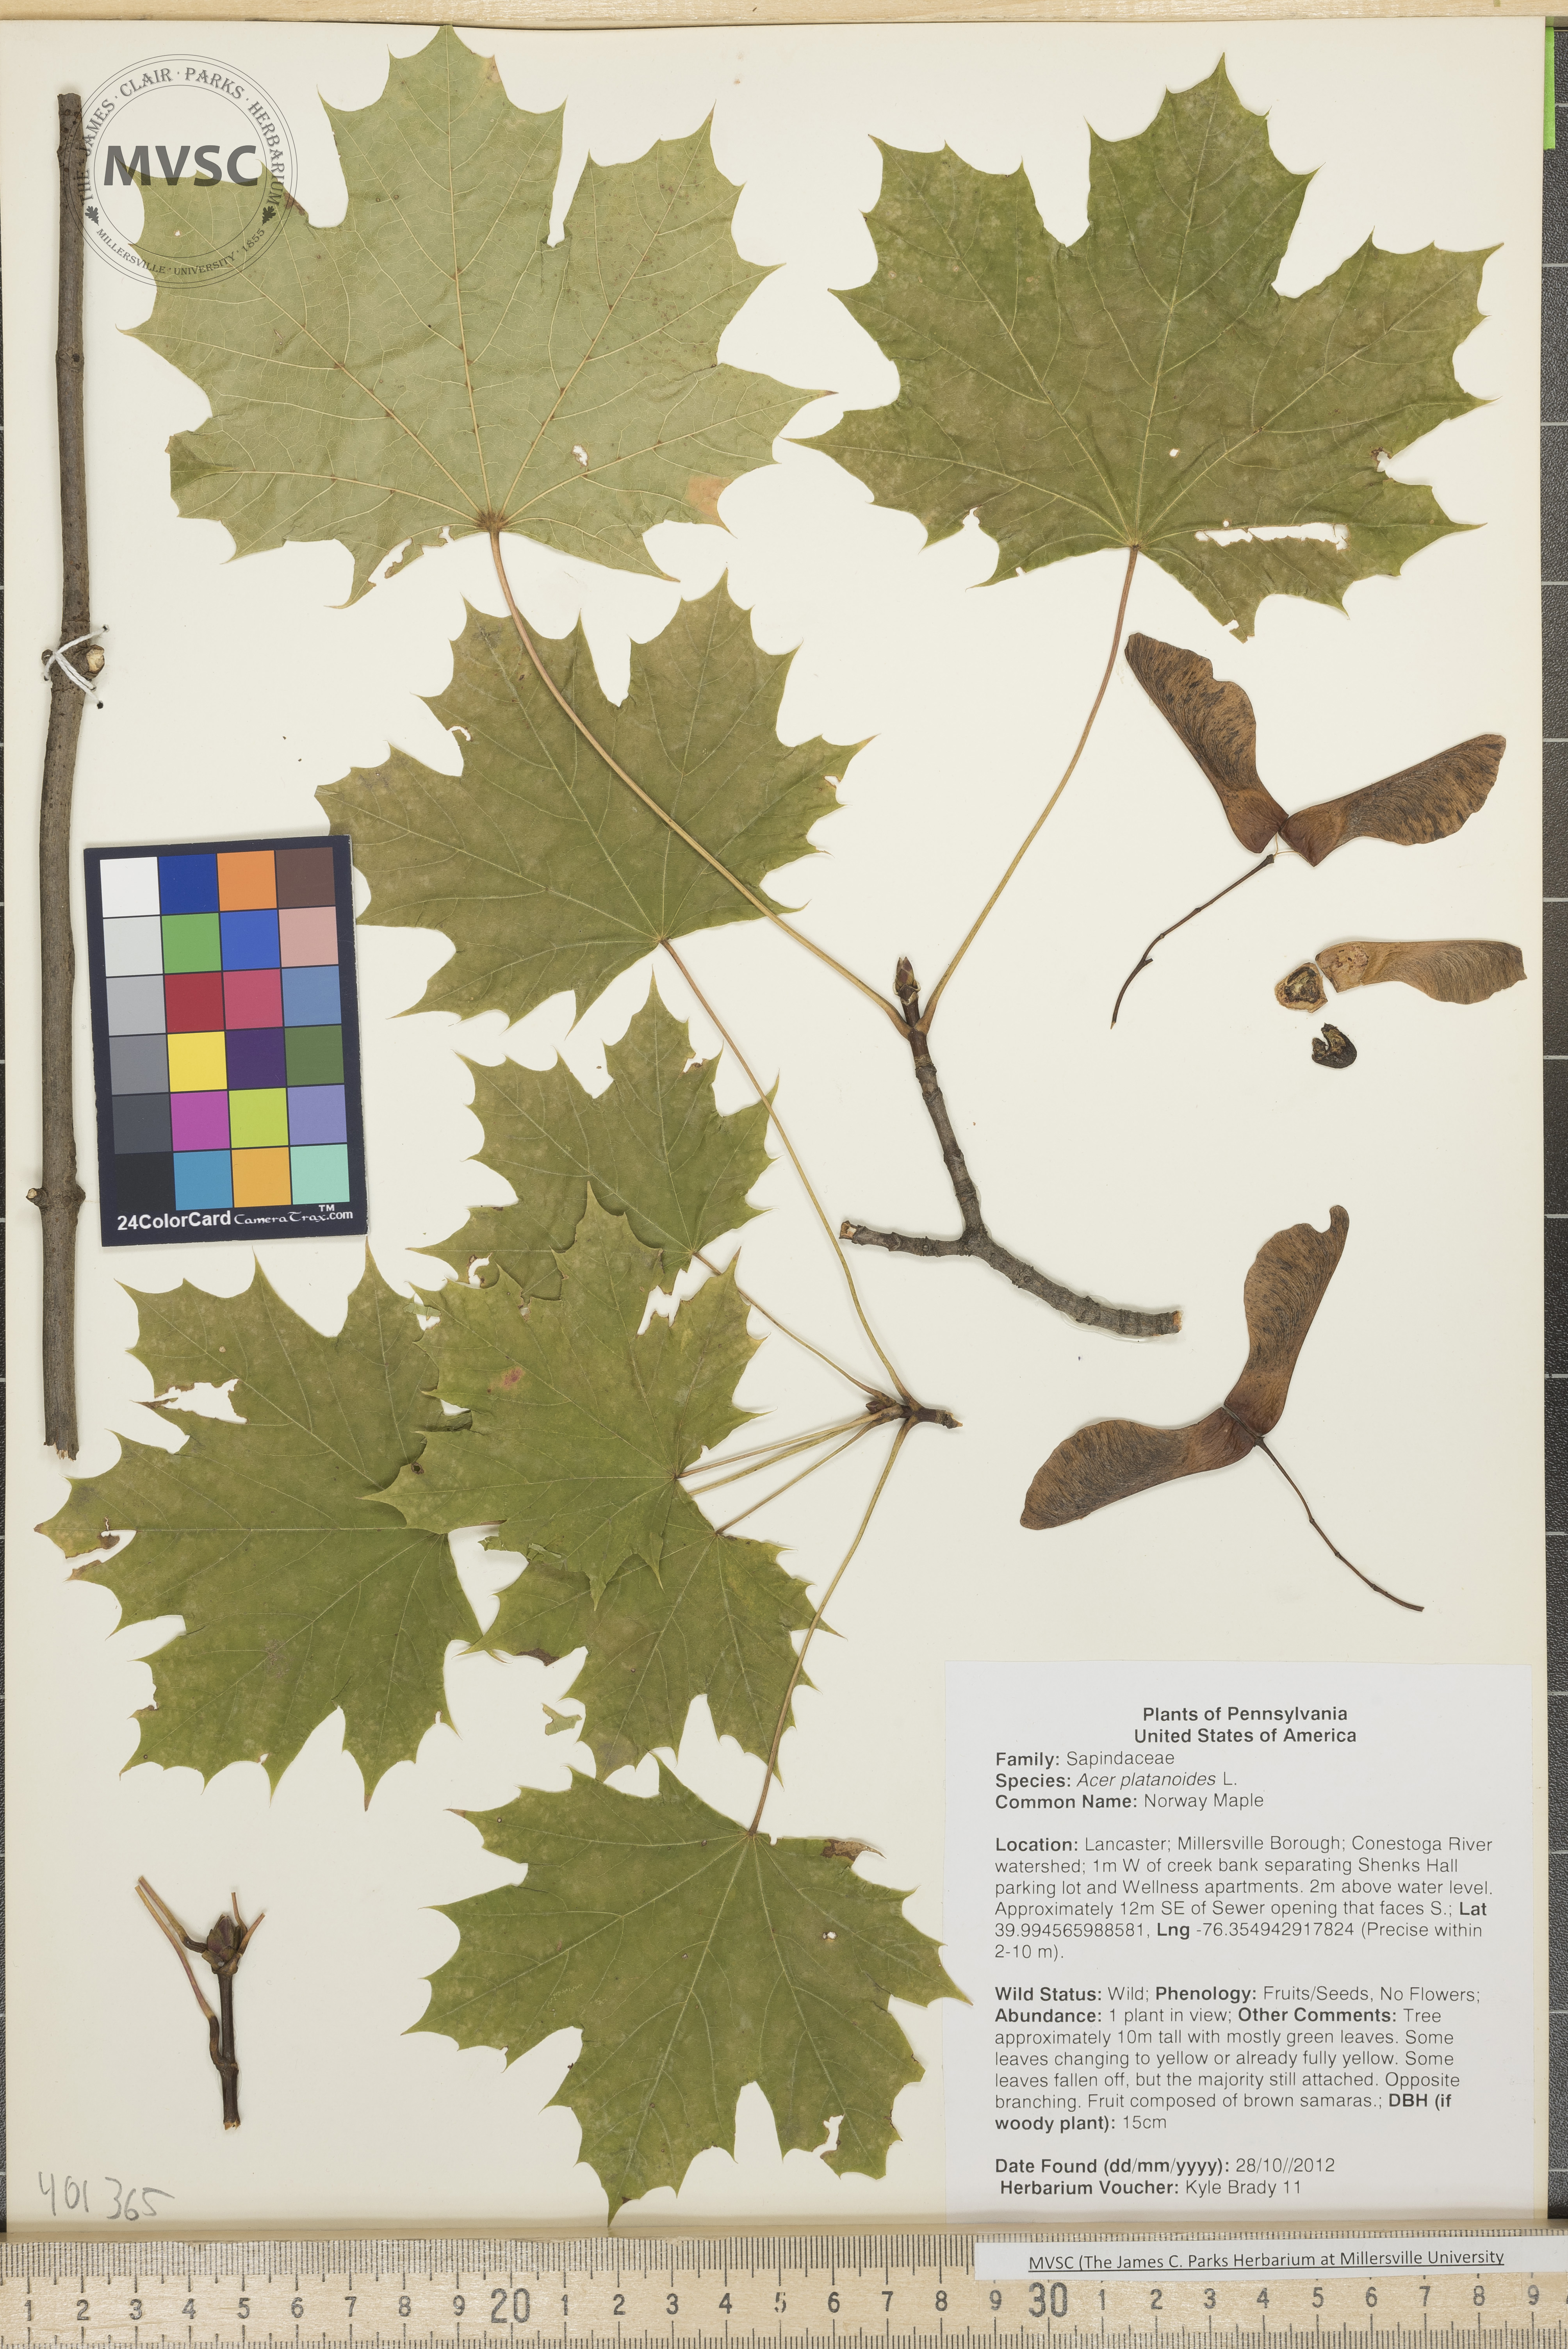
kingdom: Plantae
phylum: Tracheophyta
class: Magnoliopsida
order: Sapindales
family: Sapindaceae
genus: Acer
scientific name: Acer platanoides
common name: Norway Maple
